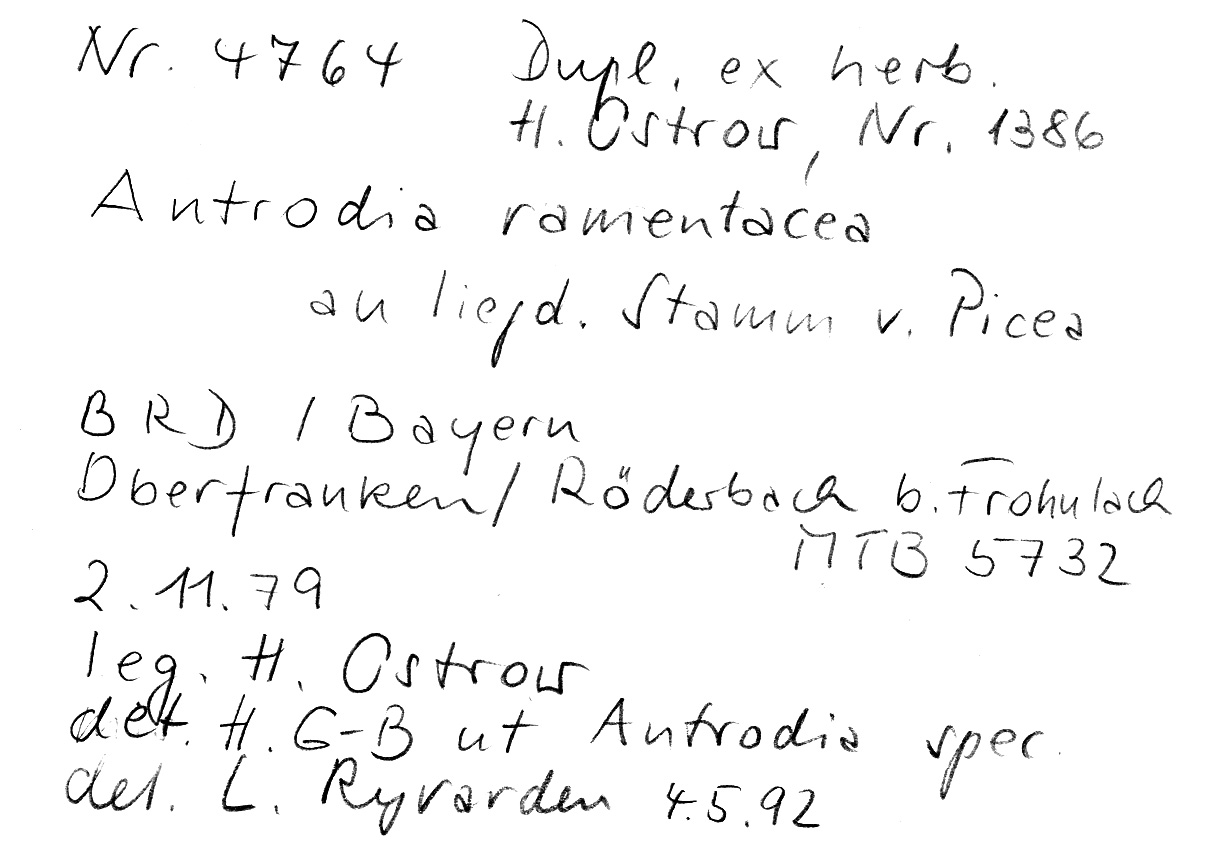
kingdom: Plantae
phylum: Tracheophyta
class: Pinopsida
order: Pinales
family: Pinaceae
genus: Picea
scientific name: Picea
